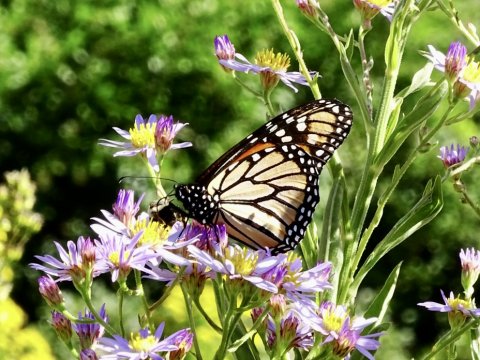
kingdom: Animalia
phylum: Arthropoda
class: Insecta
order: Lepidoptera
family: Nymphalidae
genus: Danaus
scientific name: Danaus plexippus
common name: Monarch
